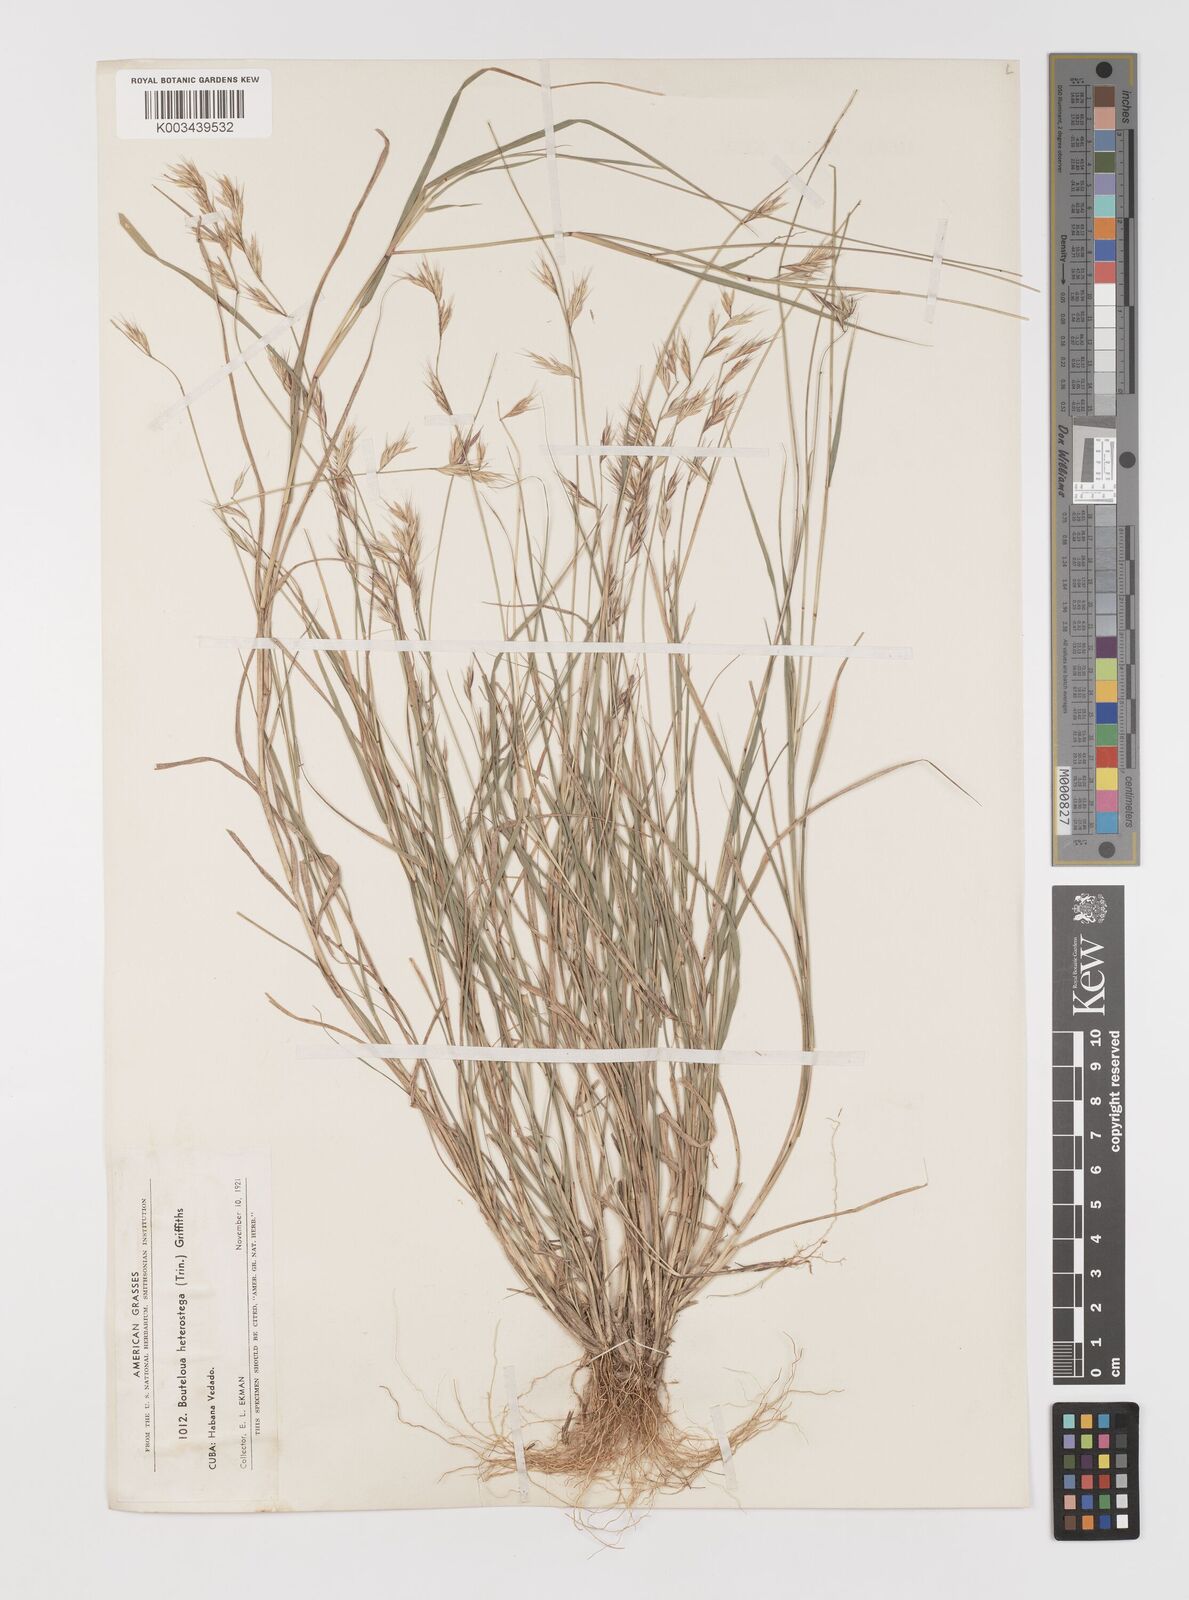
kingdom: Plantae
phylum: Tracheophyta
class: Liliopsida
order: Poales
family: Poaceae
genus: Bouteloua
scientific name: Bouteloua repens
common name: Slender grama
